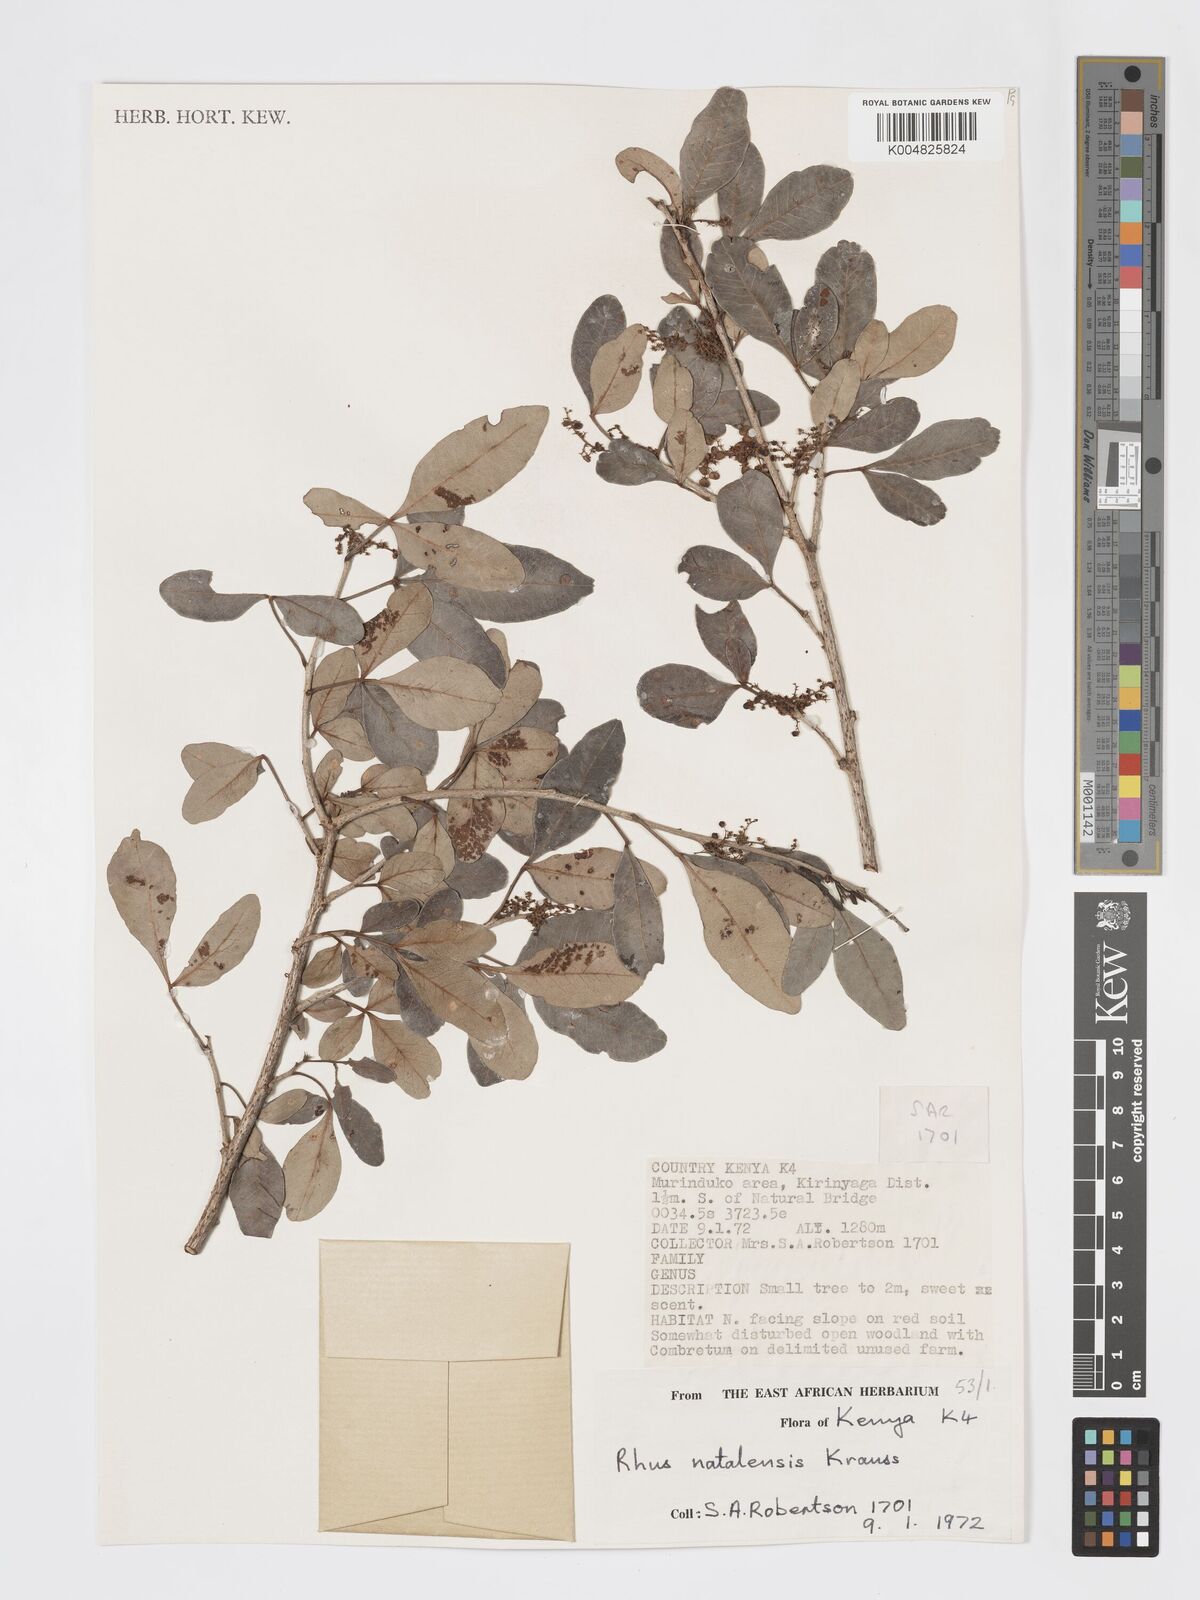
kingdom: Plantae
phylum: Tracheophyta
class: Magnoliopsida
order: Sapindales
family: Anacardiaceae
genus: Searsia
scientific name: Searsia natalensis
